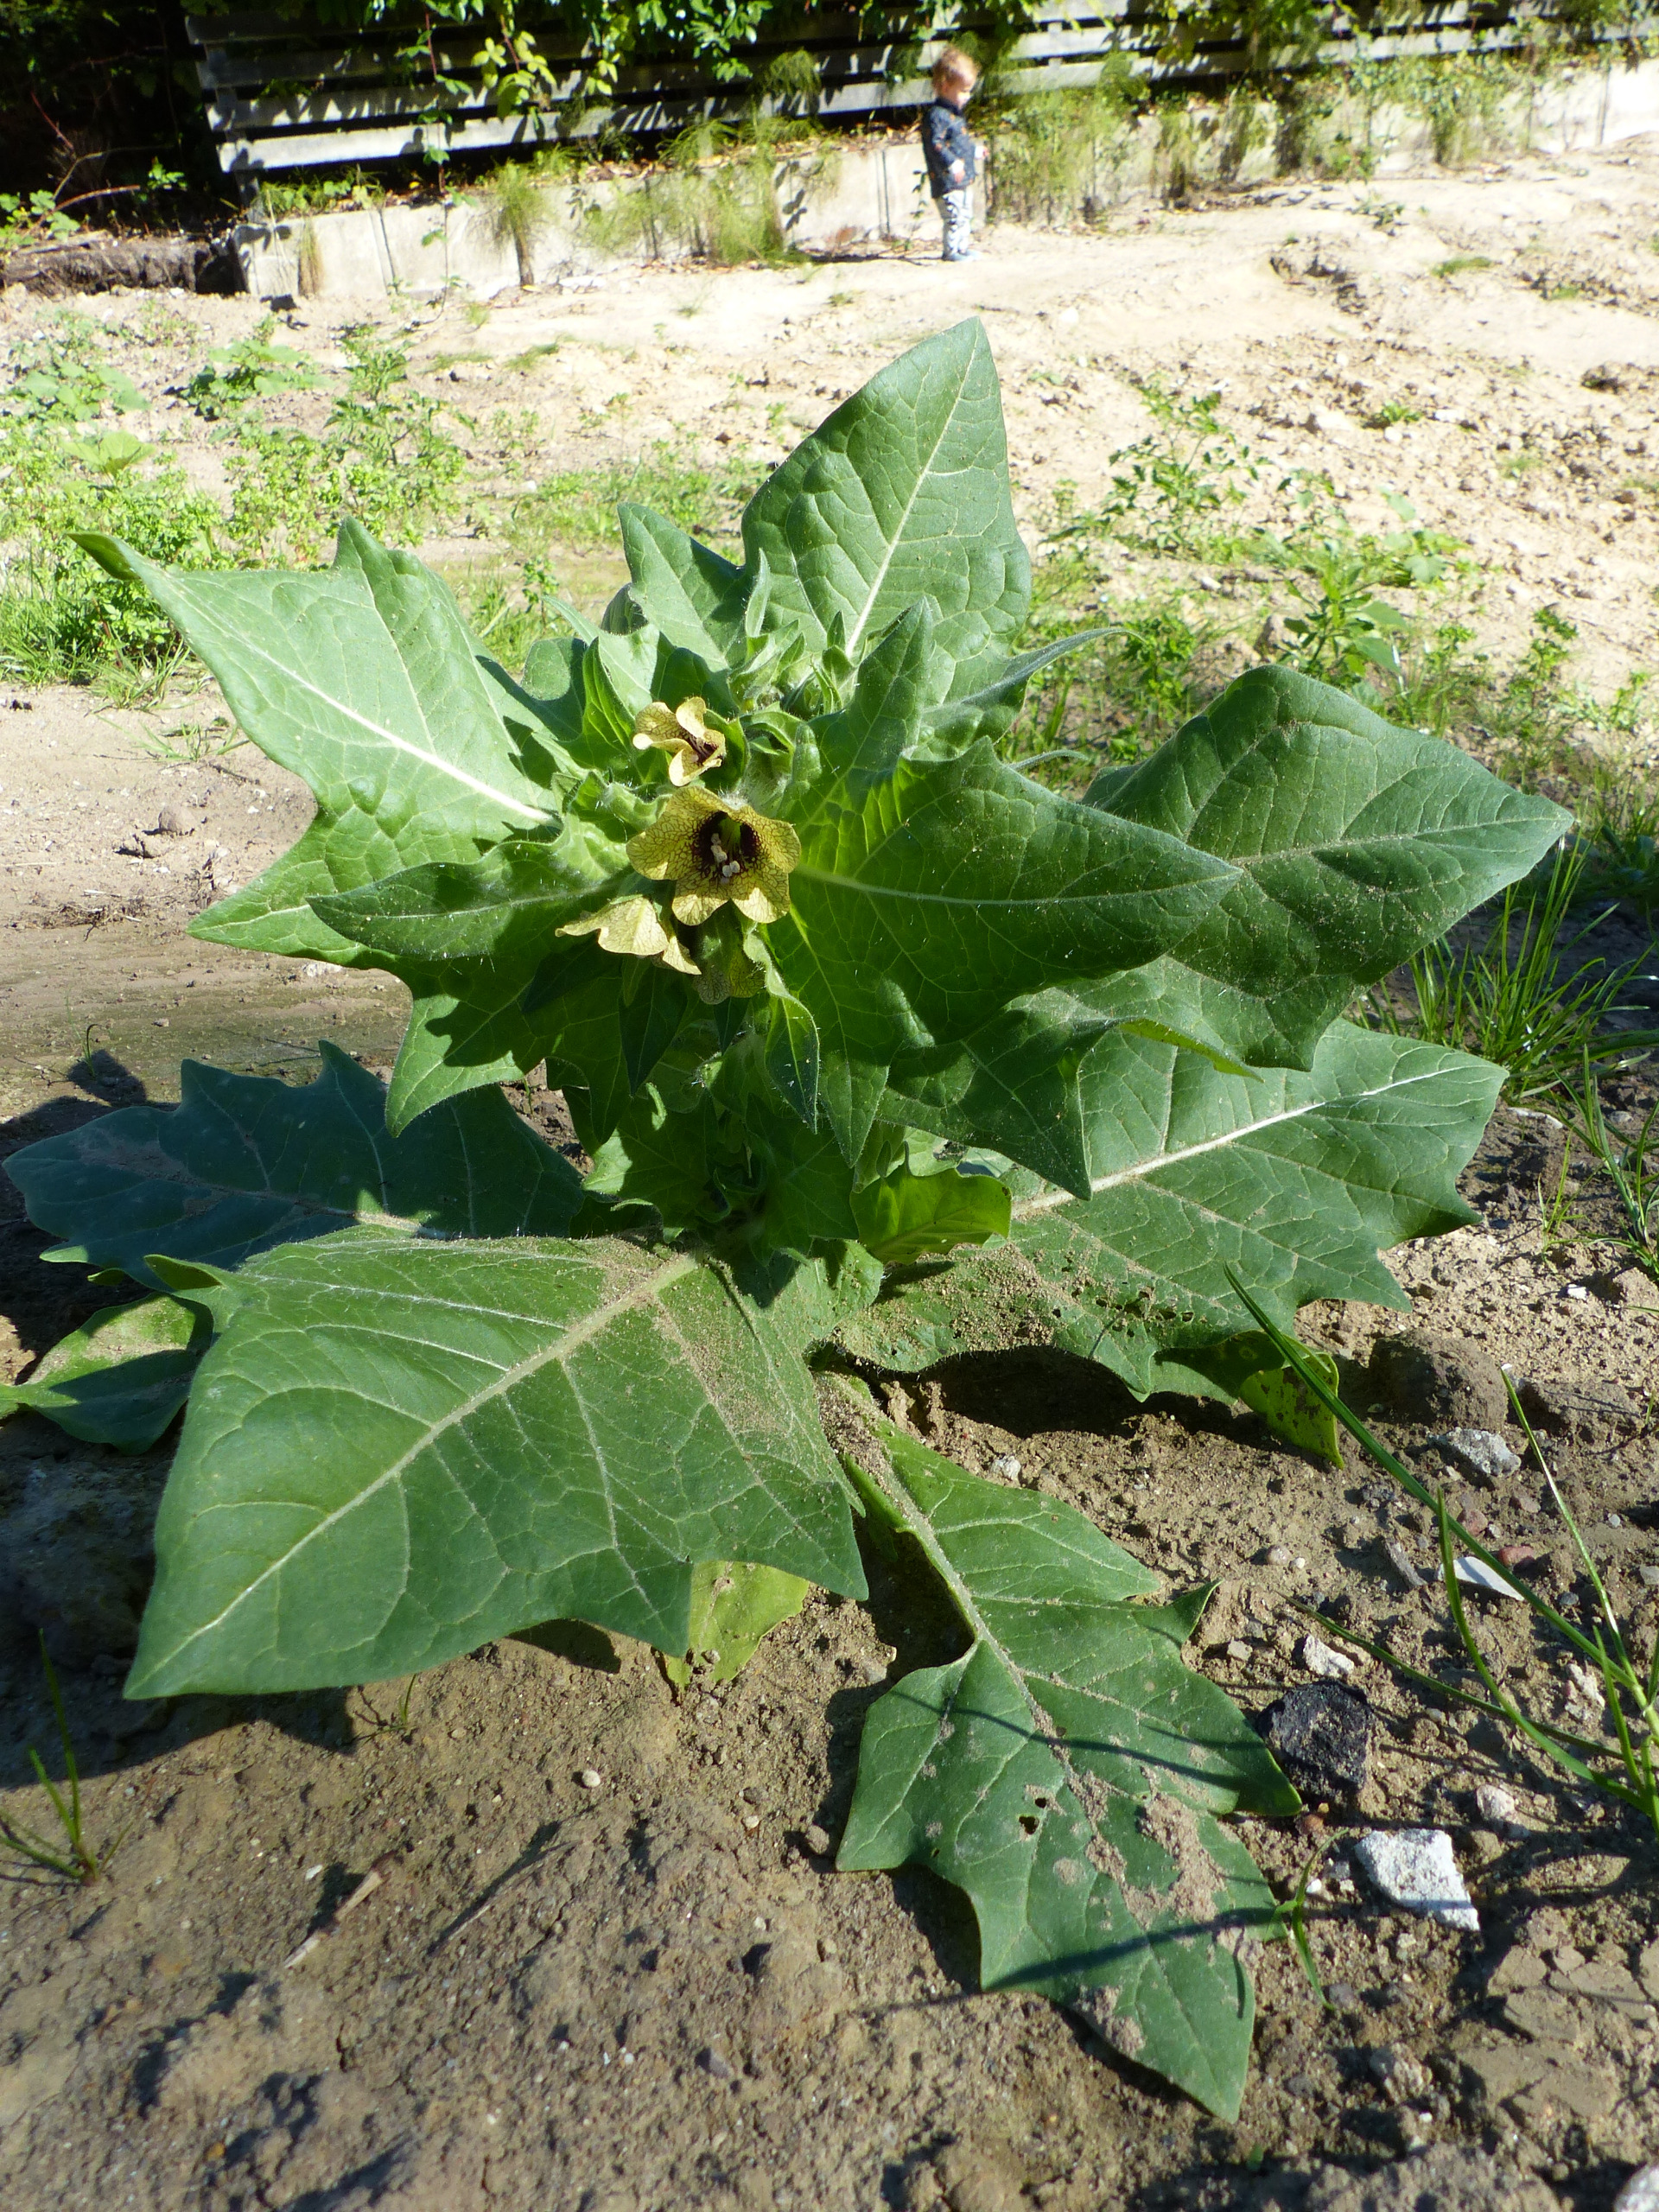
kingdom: Plantae
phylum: Tracheophyta
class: Magnoliopsida
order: Solanales
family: Solanaceae
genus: Hyoscyamus
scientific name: Hyoscyamus niger
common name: Bulmeurt
